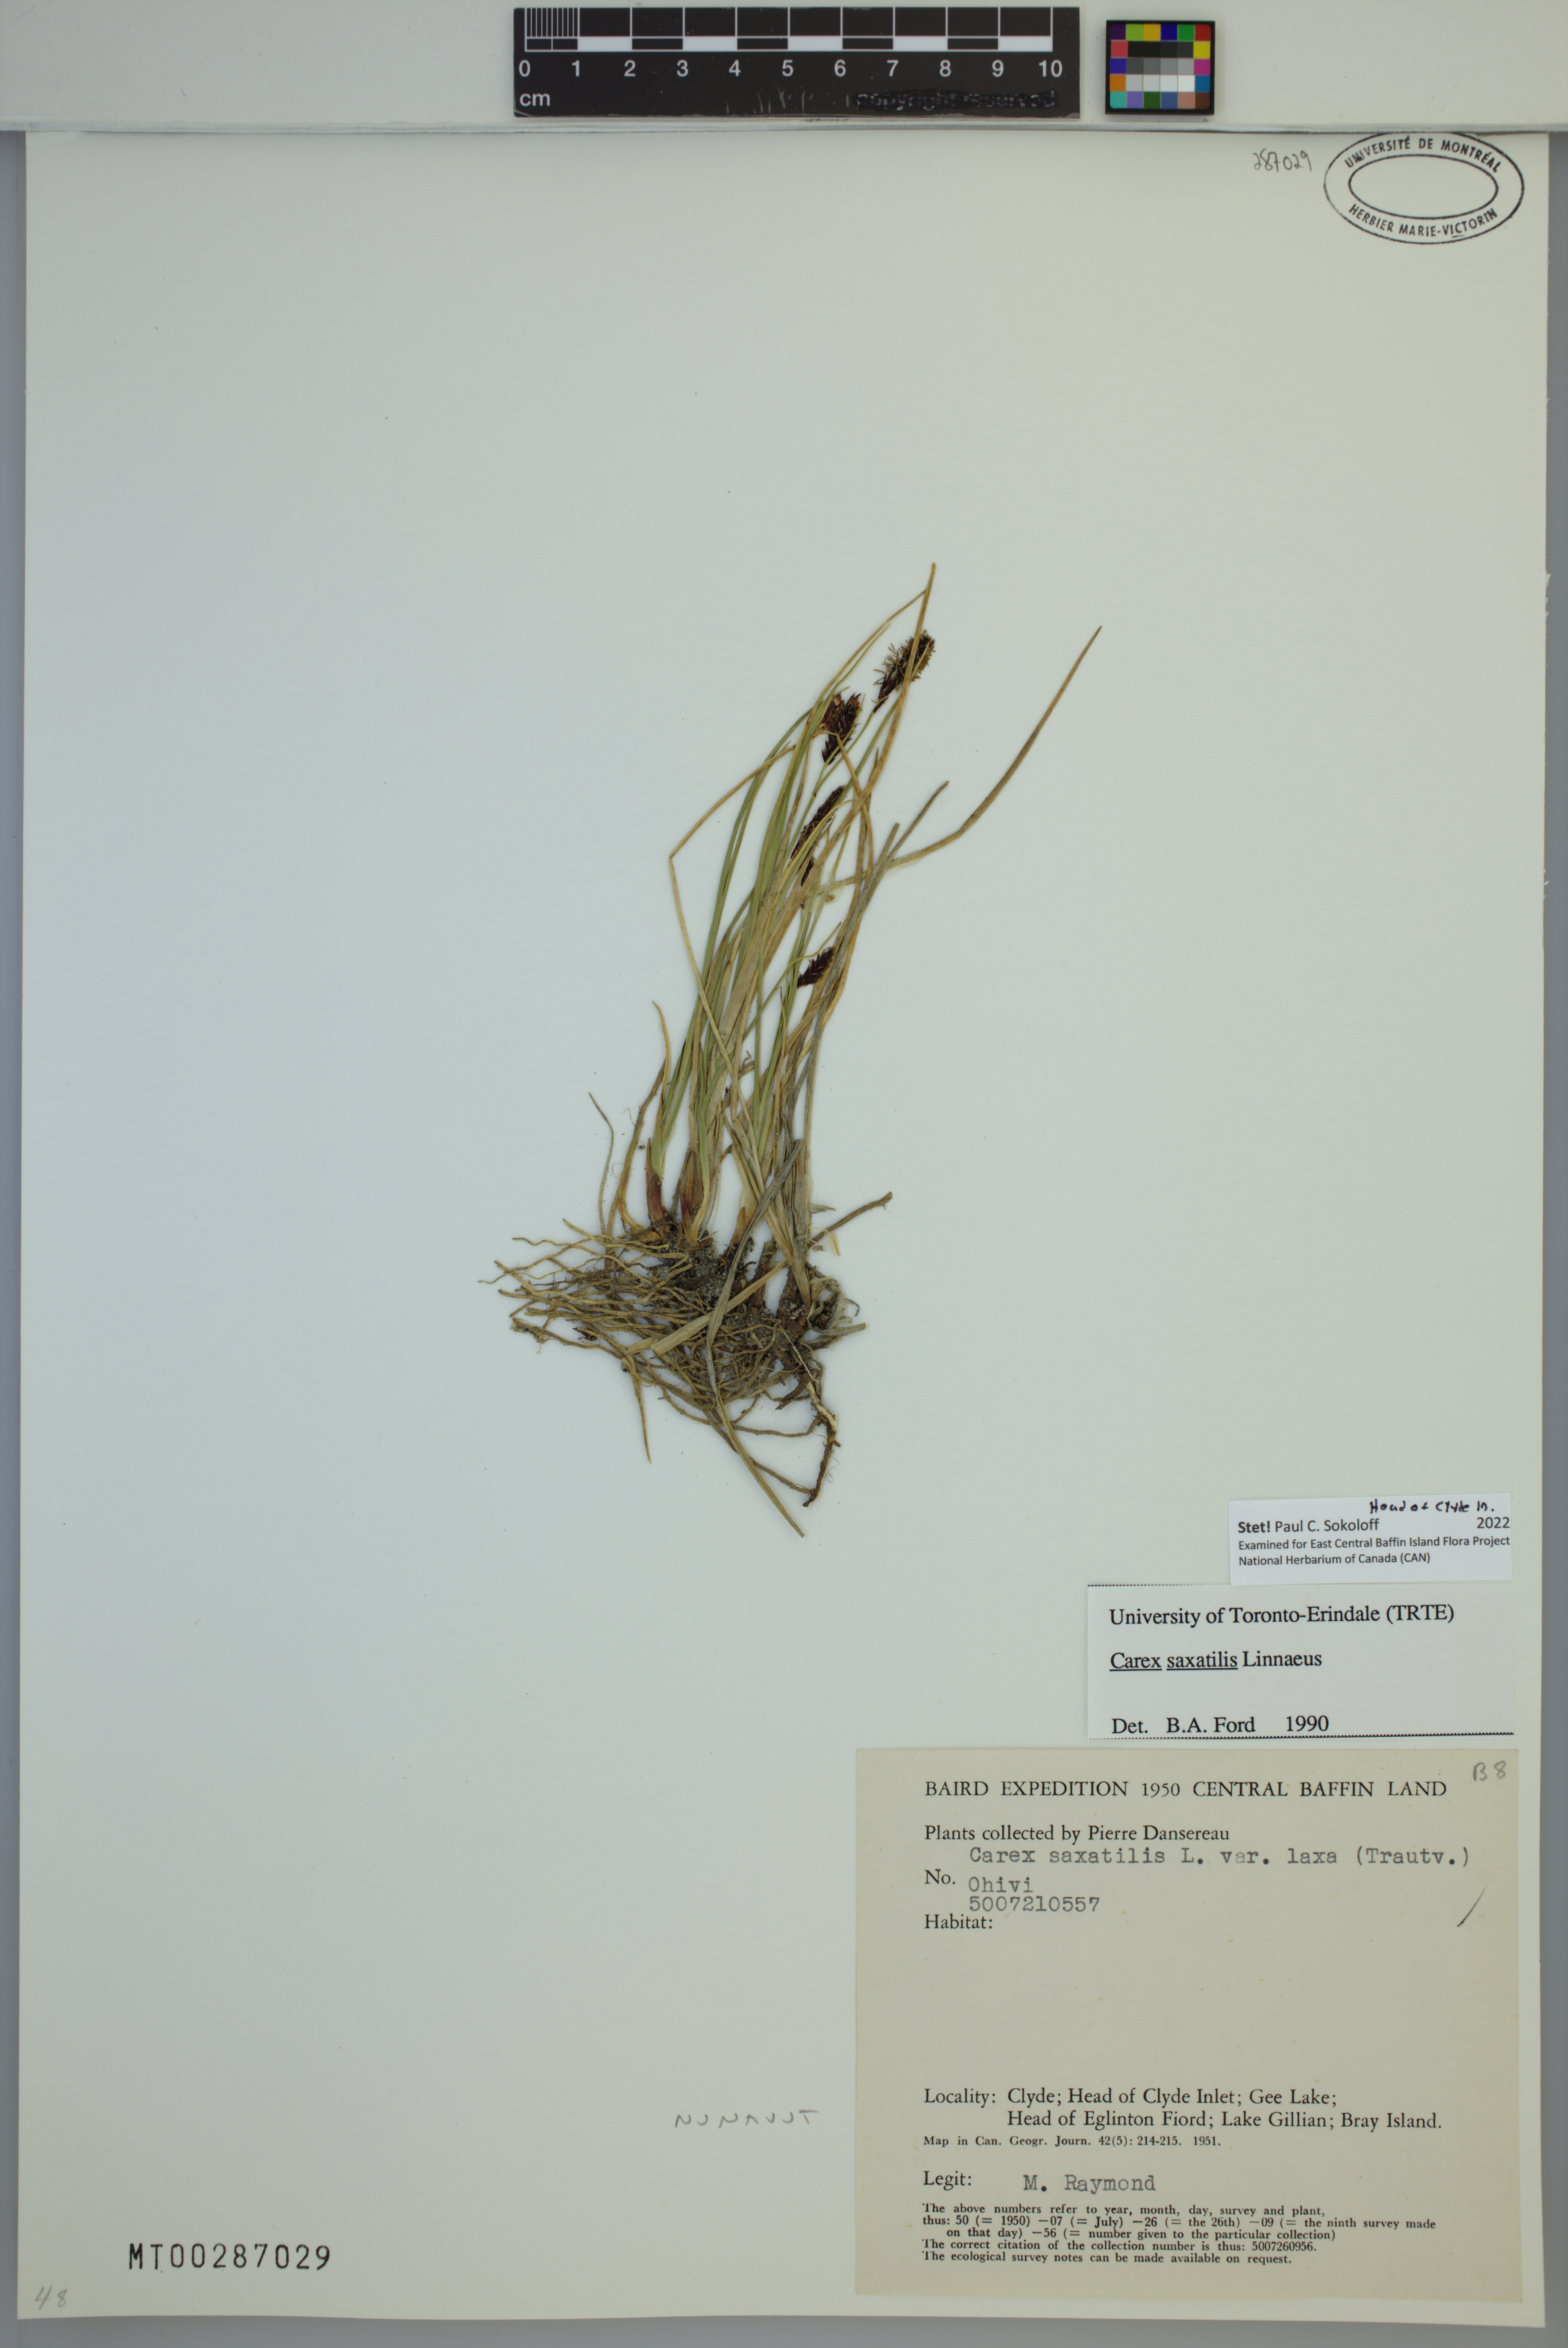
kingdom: Plantae
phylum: Tracheophyta
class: Liliopsida
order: Poales
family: Cyperaceae
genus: Carex
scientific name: Carex saxatilis
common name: Russet sedge
